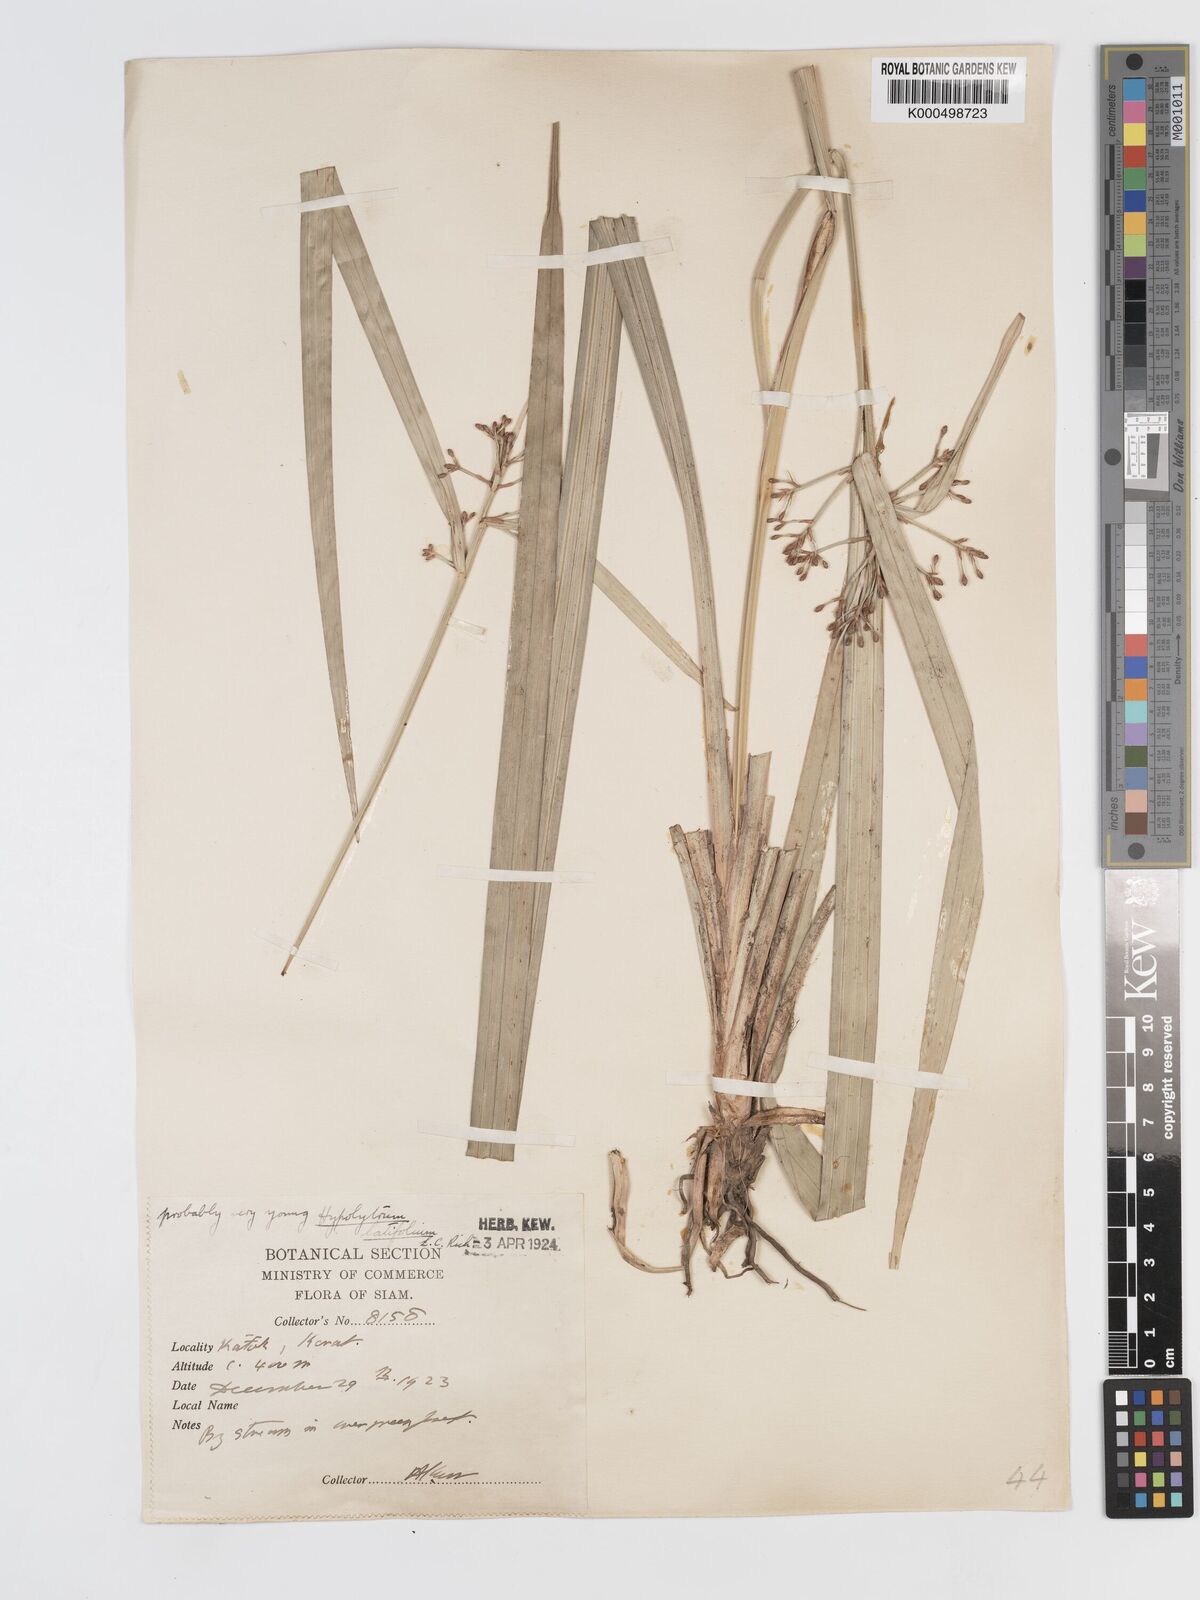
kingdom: Plantae
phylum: Tracheophyta
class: Liliopsida
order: Poales
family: Cyperaceae
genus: Hypolytrum
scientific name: Hypolytrum nemorum
